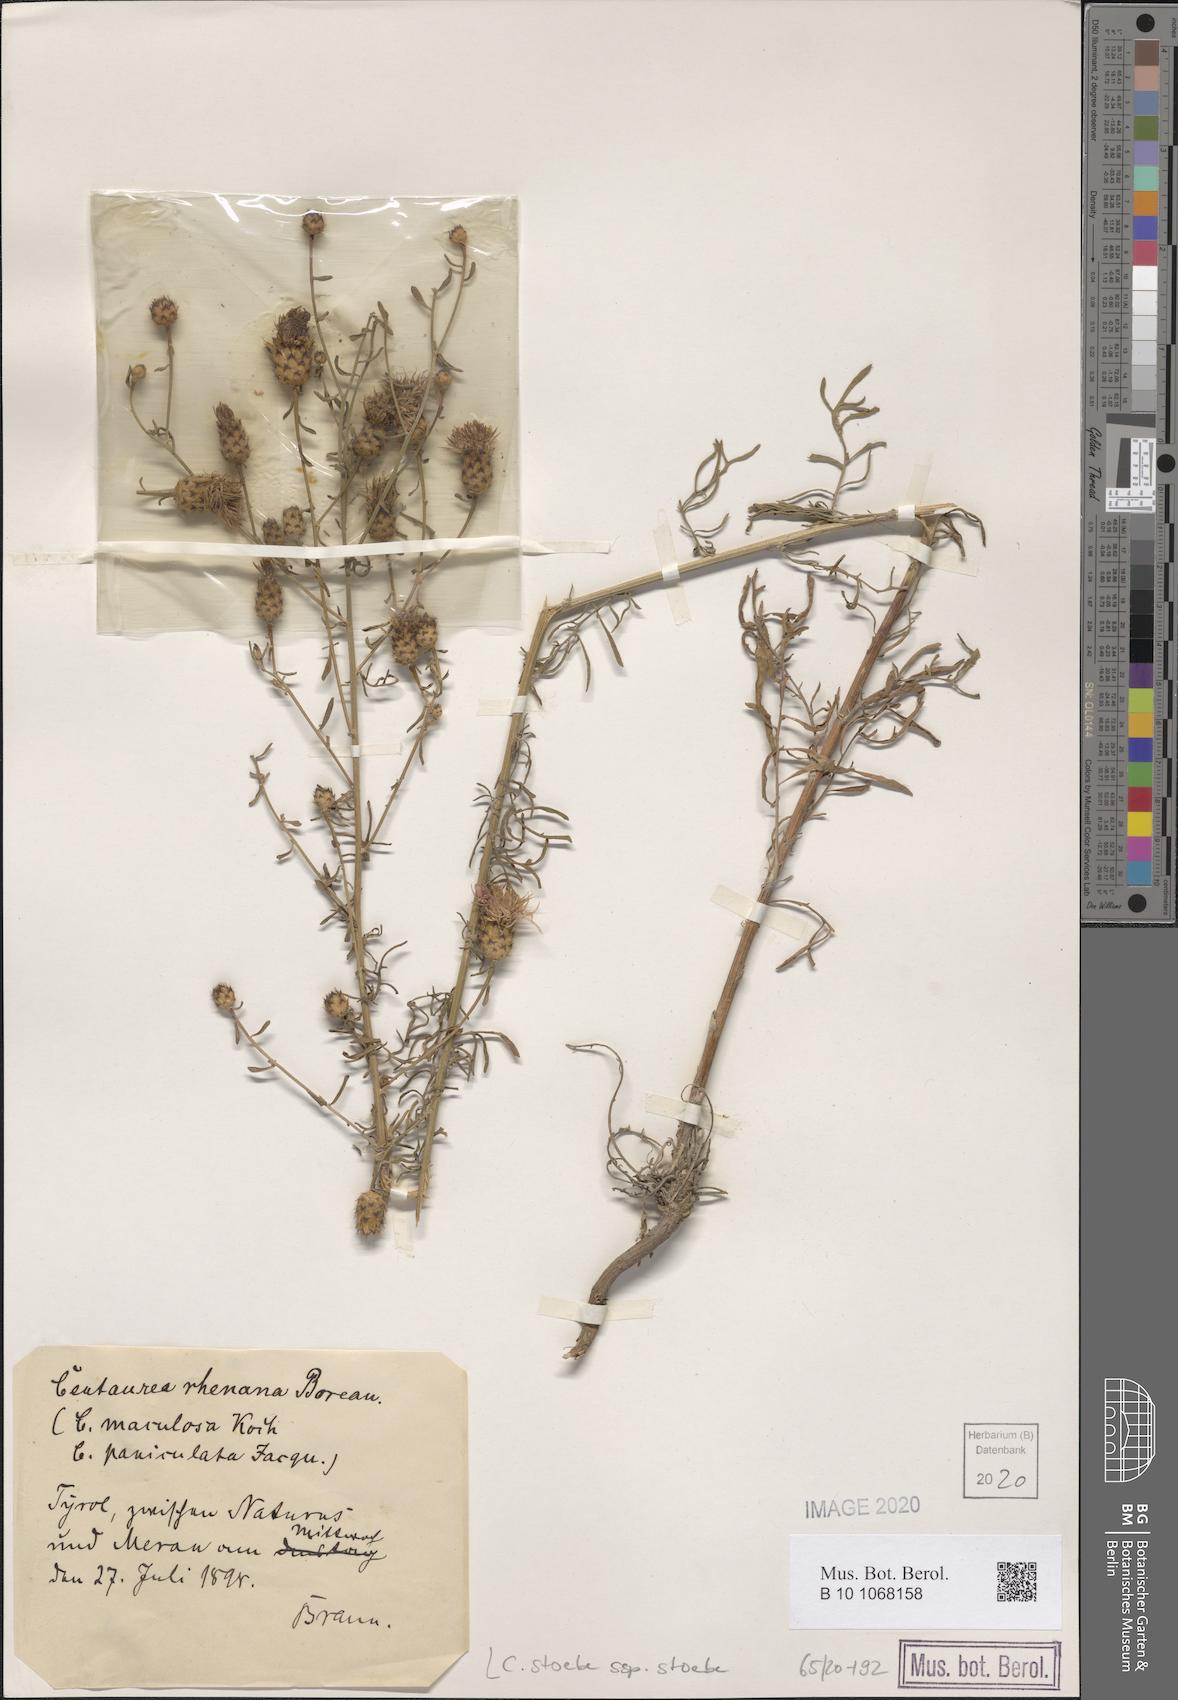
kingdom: Plantae
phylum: Tracheophyta
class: Magnoliopsida
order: Asterales
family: Asteraceae
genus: Centaurea
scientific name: Centaurea stoebe
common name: Spotted knapweed
